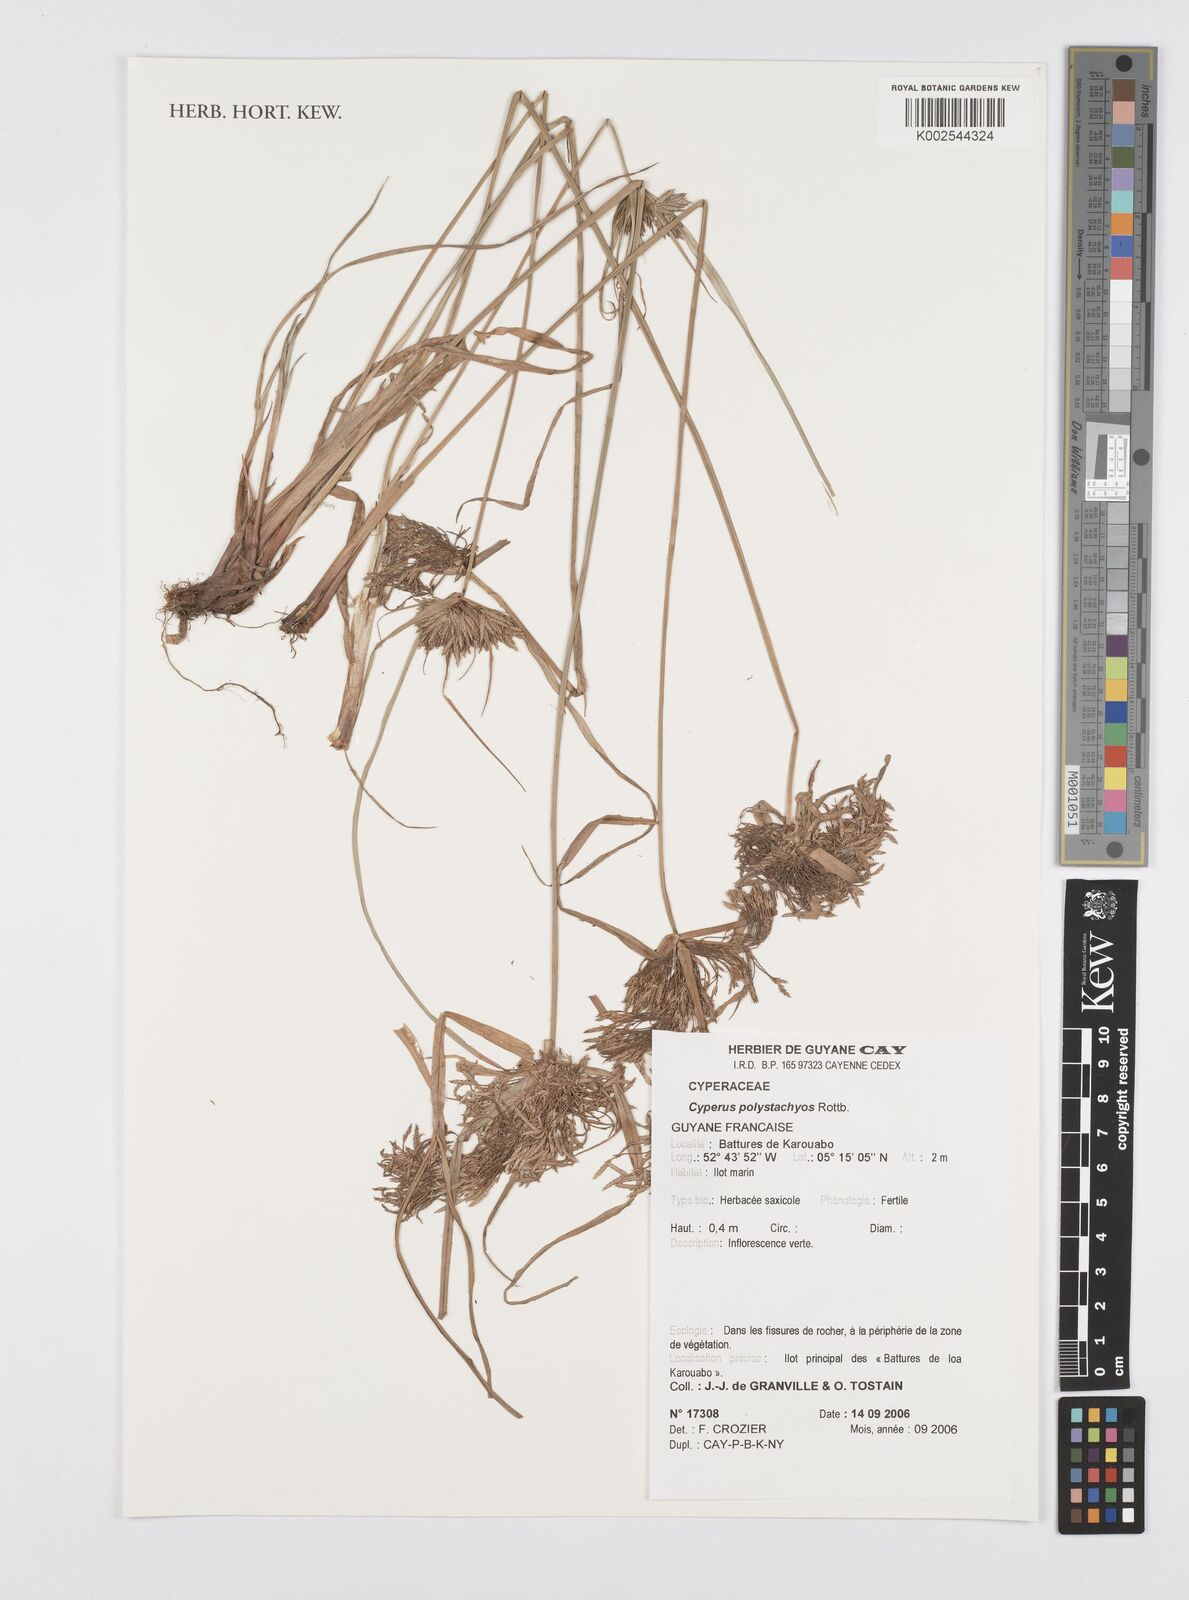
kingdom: Plantae
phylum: Tracheophyta
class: Liliopsida
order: Poales
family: Cyperaceae
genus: Cyperus
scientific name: Cyperus polystachyos
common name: Bunchy flat sedge
